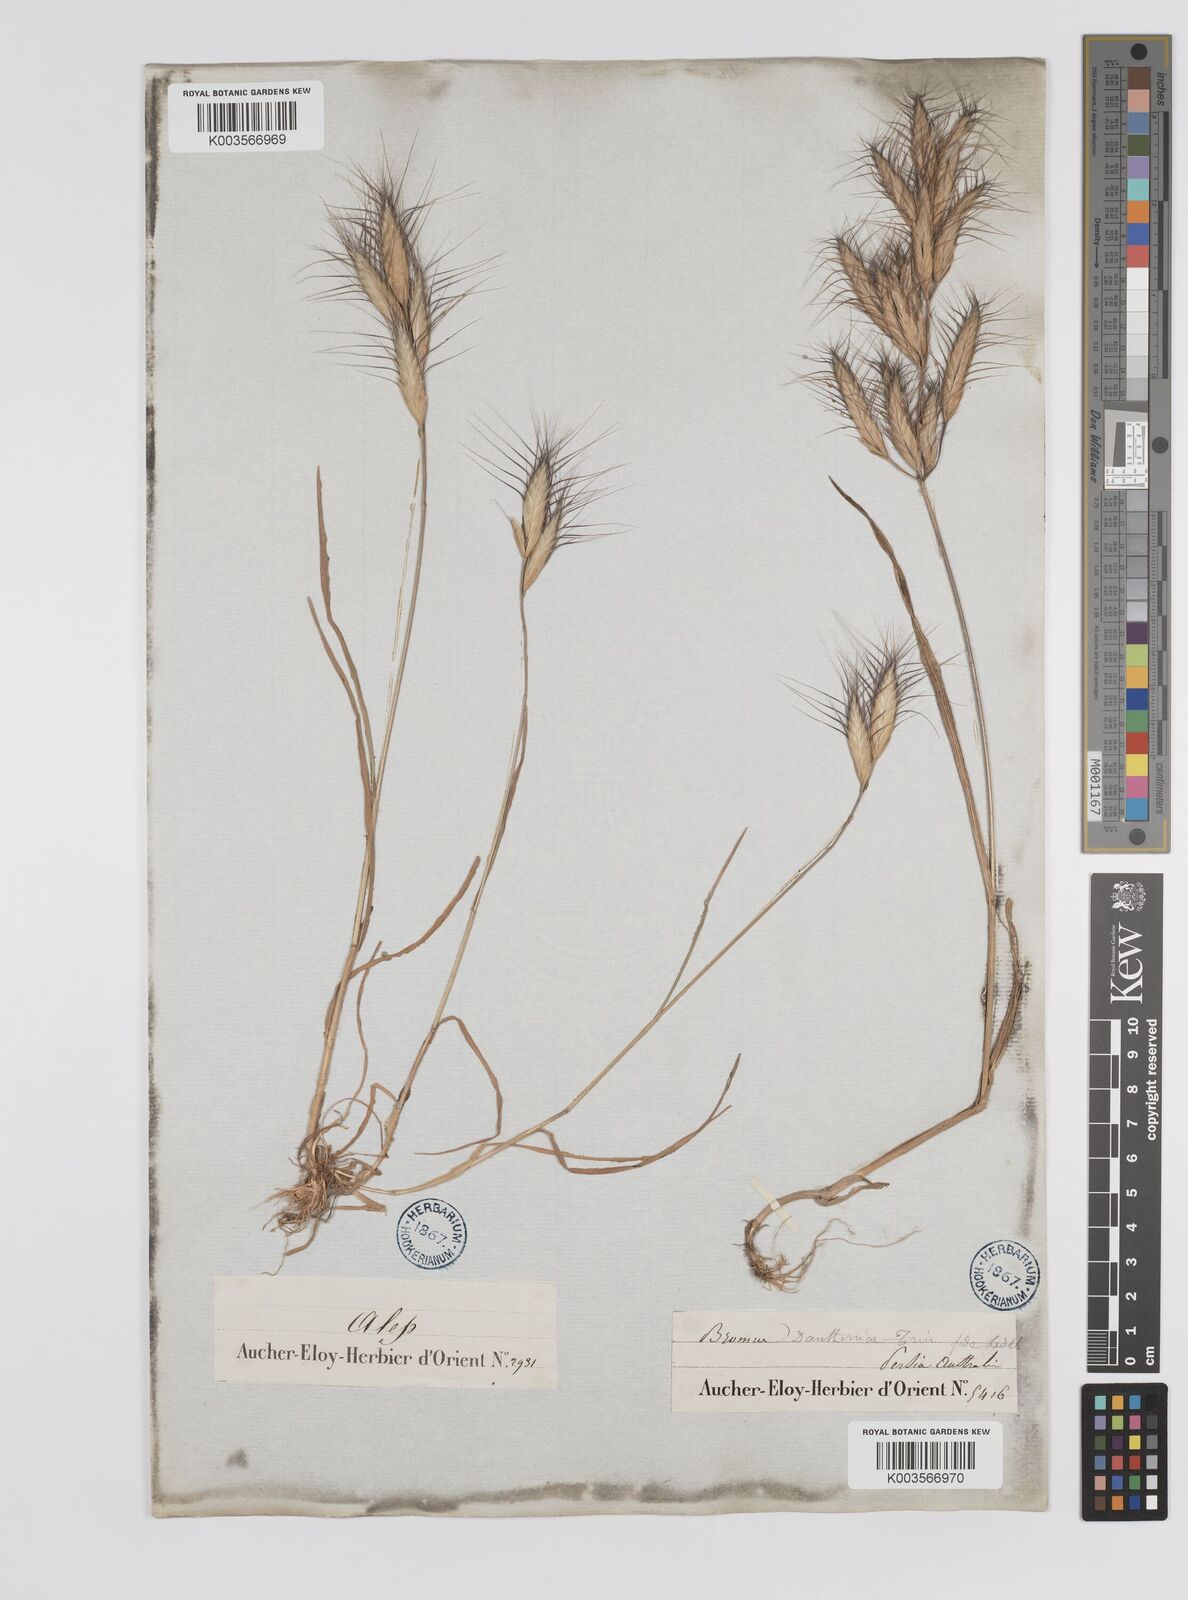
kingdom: Plantae
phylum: Tracheophyta
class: Liliopsida
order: Poales
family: Poaceae
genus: Bromus
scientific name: Bromus danthoniae
